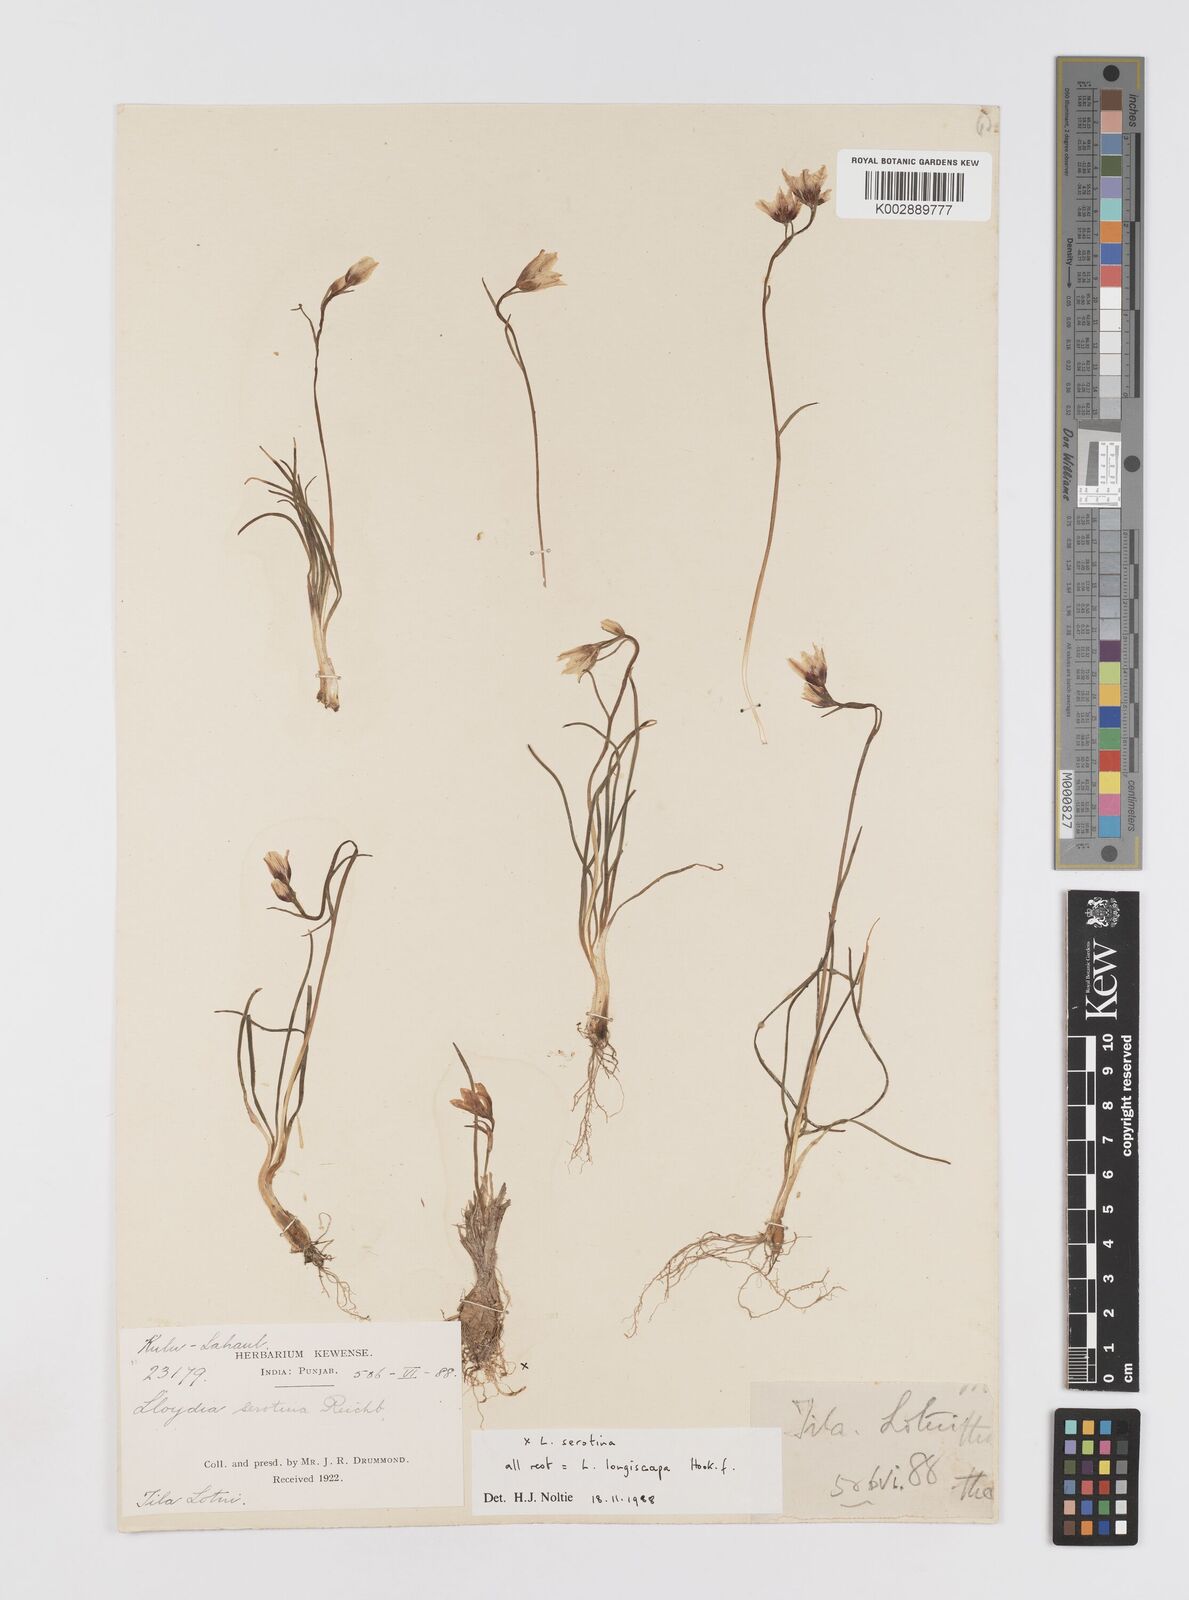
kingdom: Plantae
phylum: Tracheophyta
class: Liliopsida
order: Liliales
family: Liliaceae
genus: Gagea
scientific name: Gagea longiscapa
